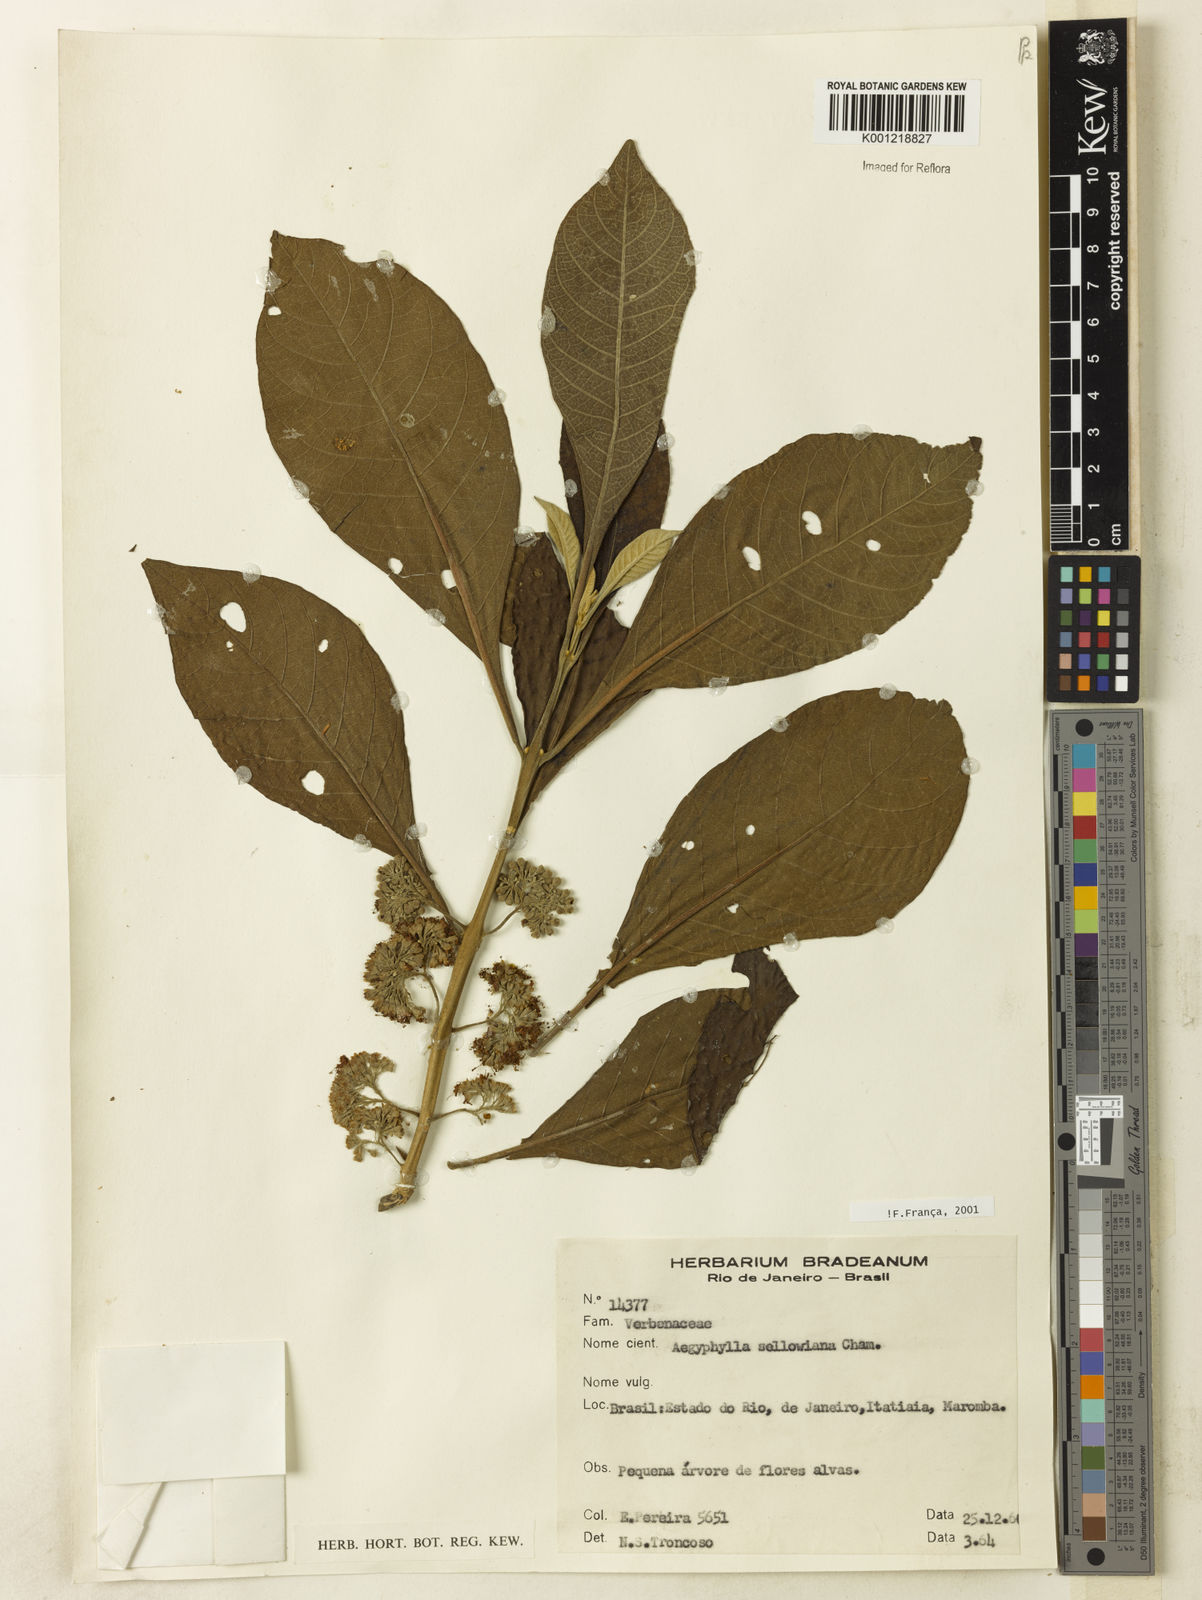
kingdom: Plantae
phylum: Tracheophyta
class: Magnoliopsida
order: Lamiales
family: Lamiaceae
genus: Aegiphila
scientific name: Aegiphila verticillata
